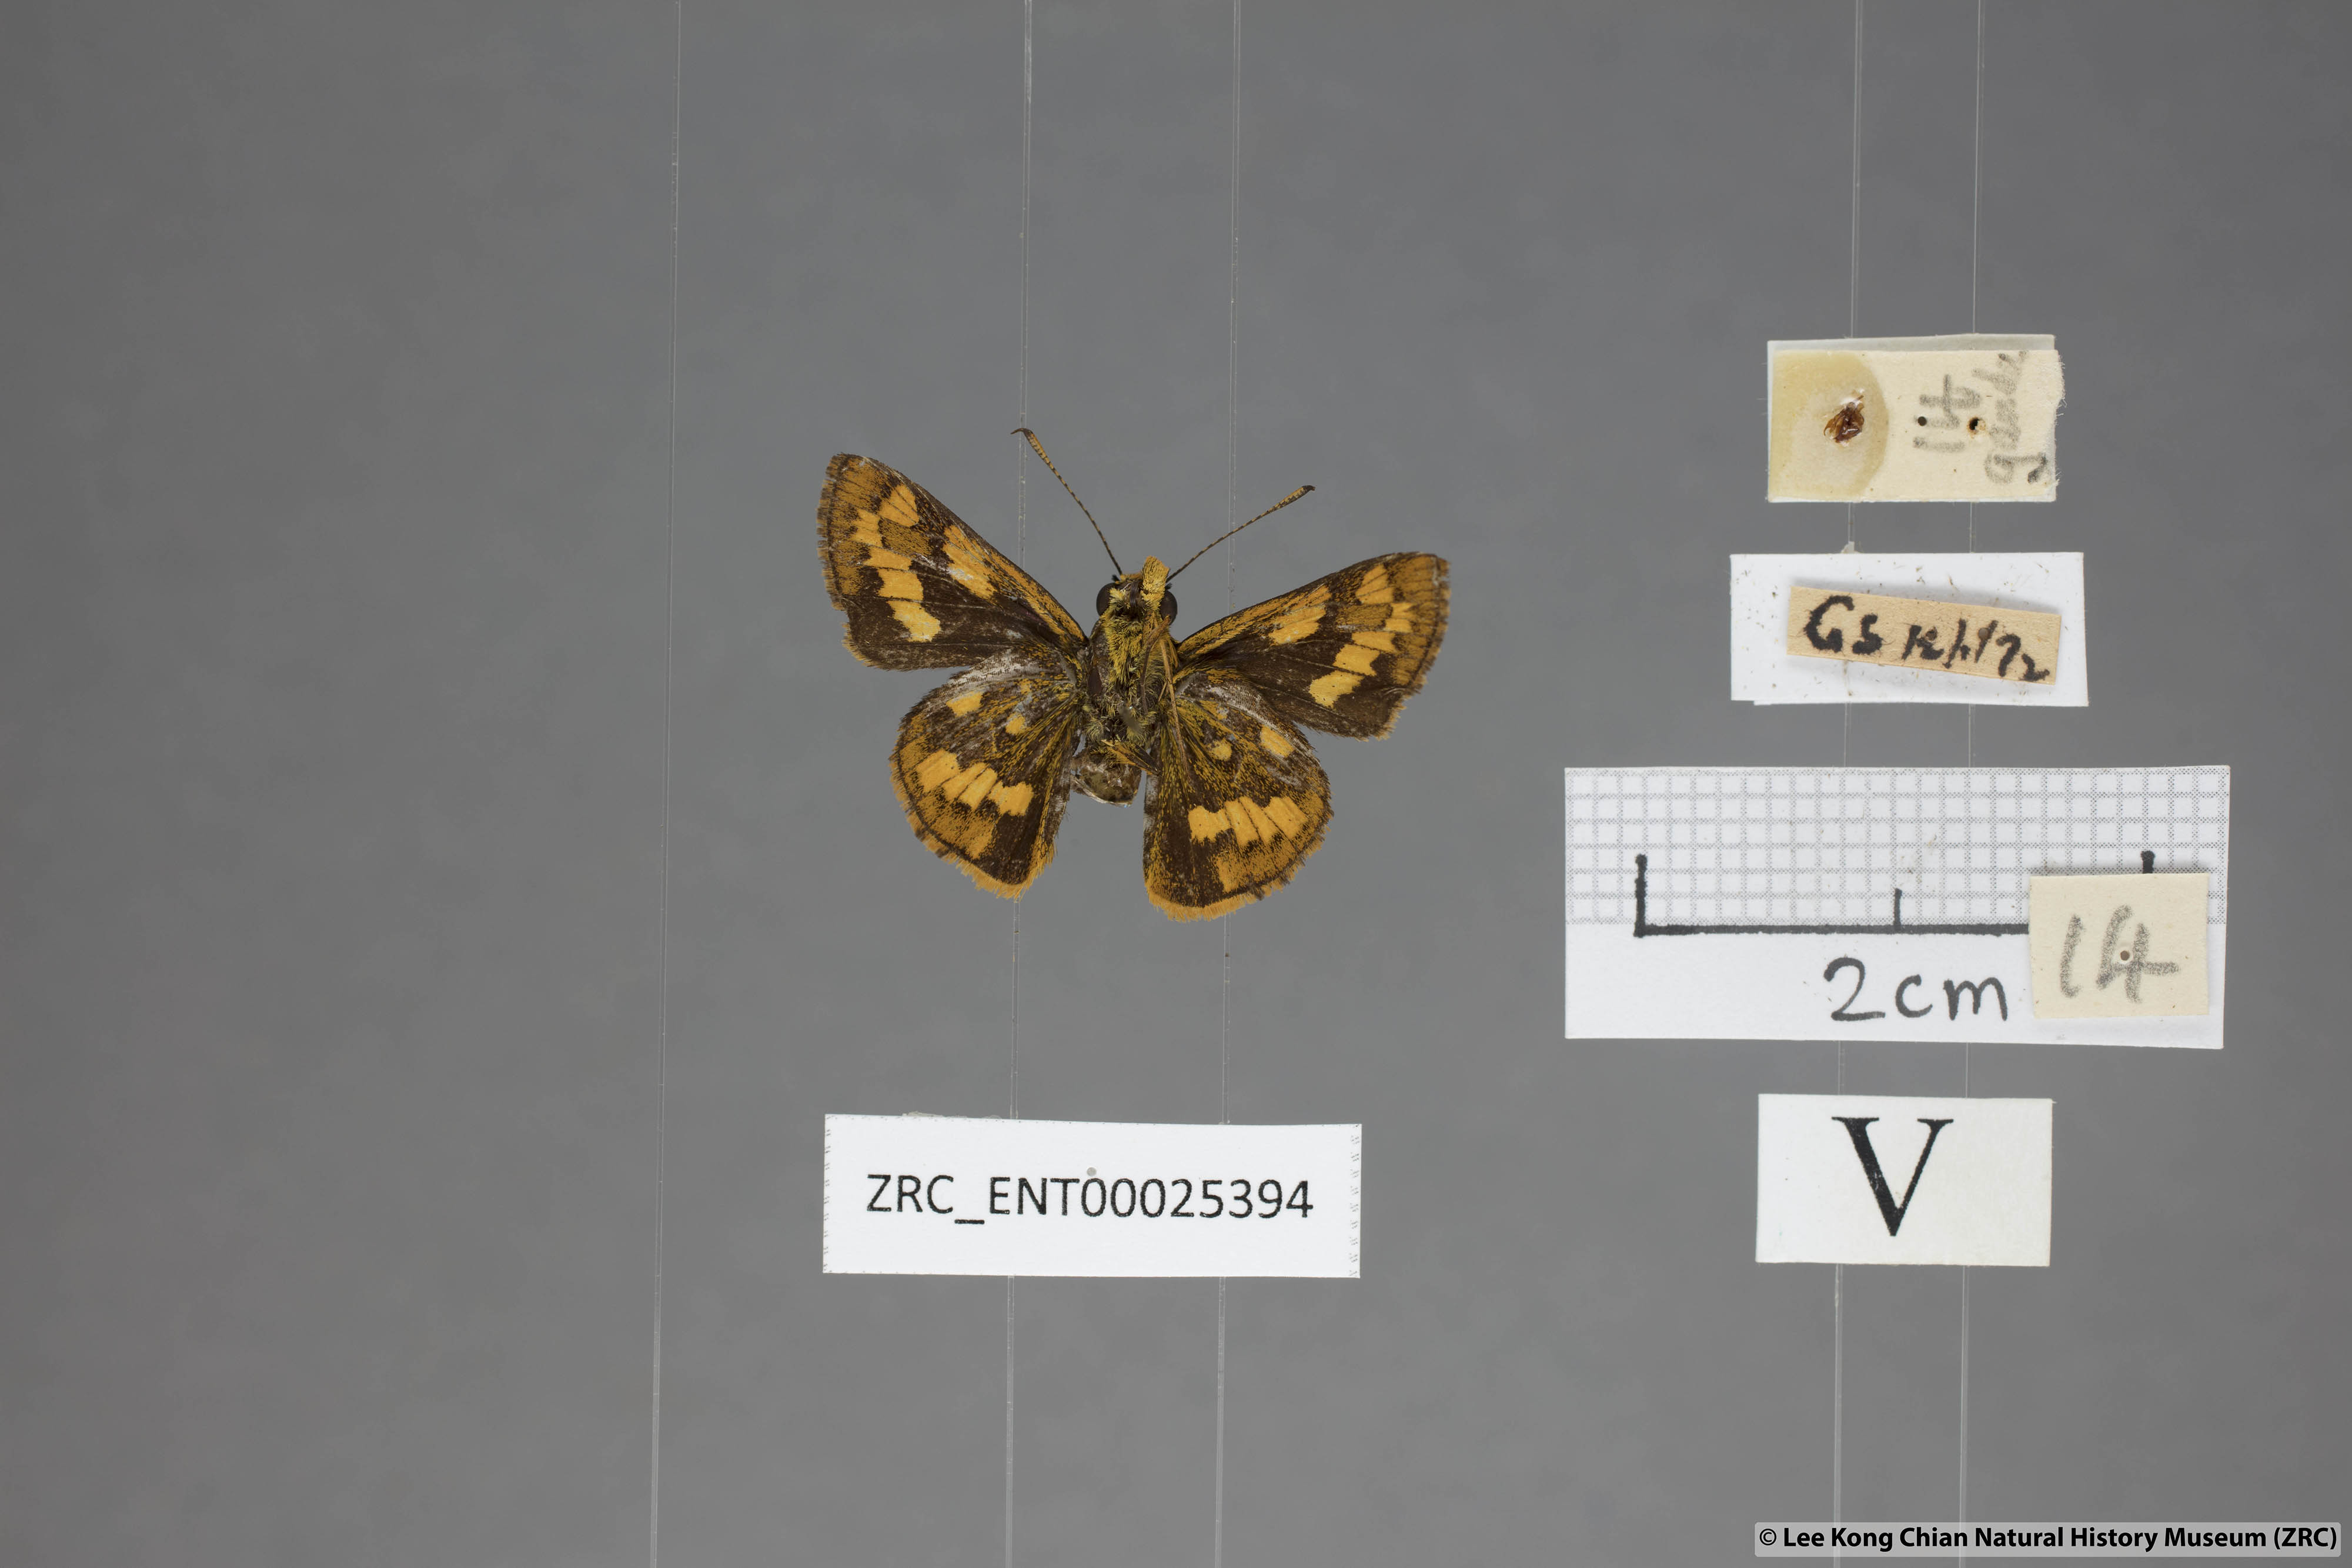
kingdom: Animalia
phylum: Arthropoda
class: Insecta
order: Lepidoptera
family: Hesperiidae
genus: Potanthus
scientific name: Potanthus ganda
